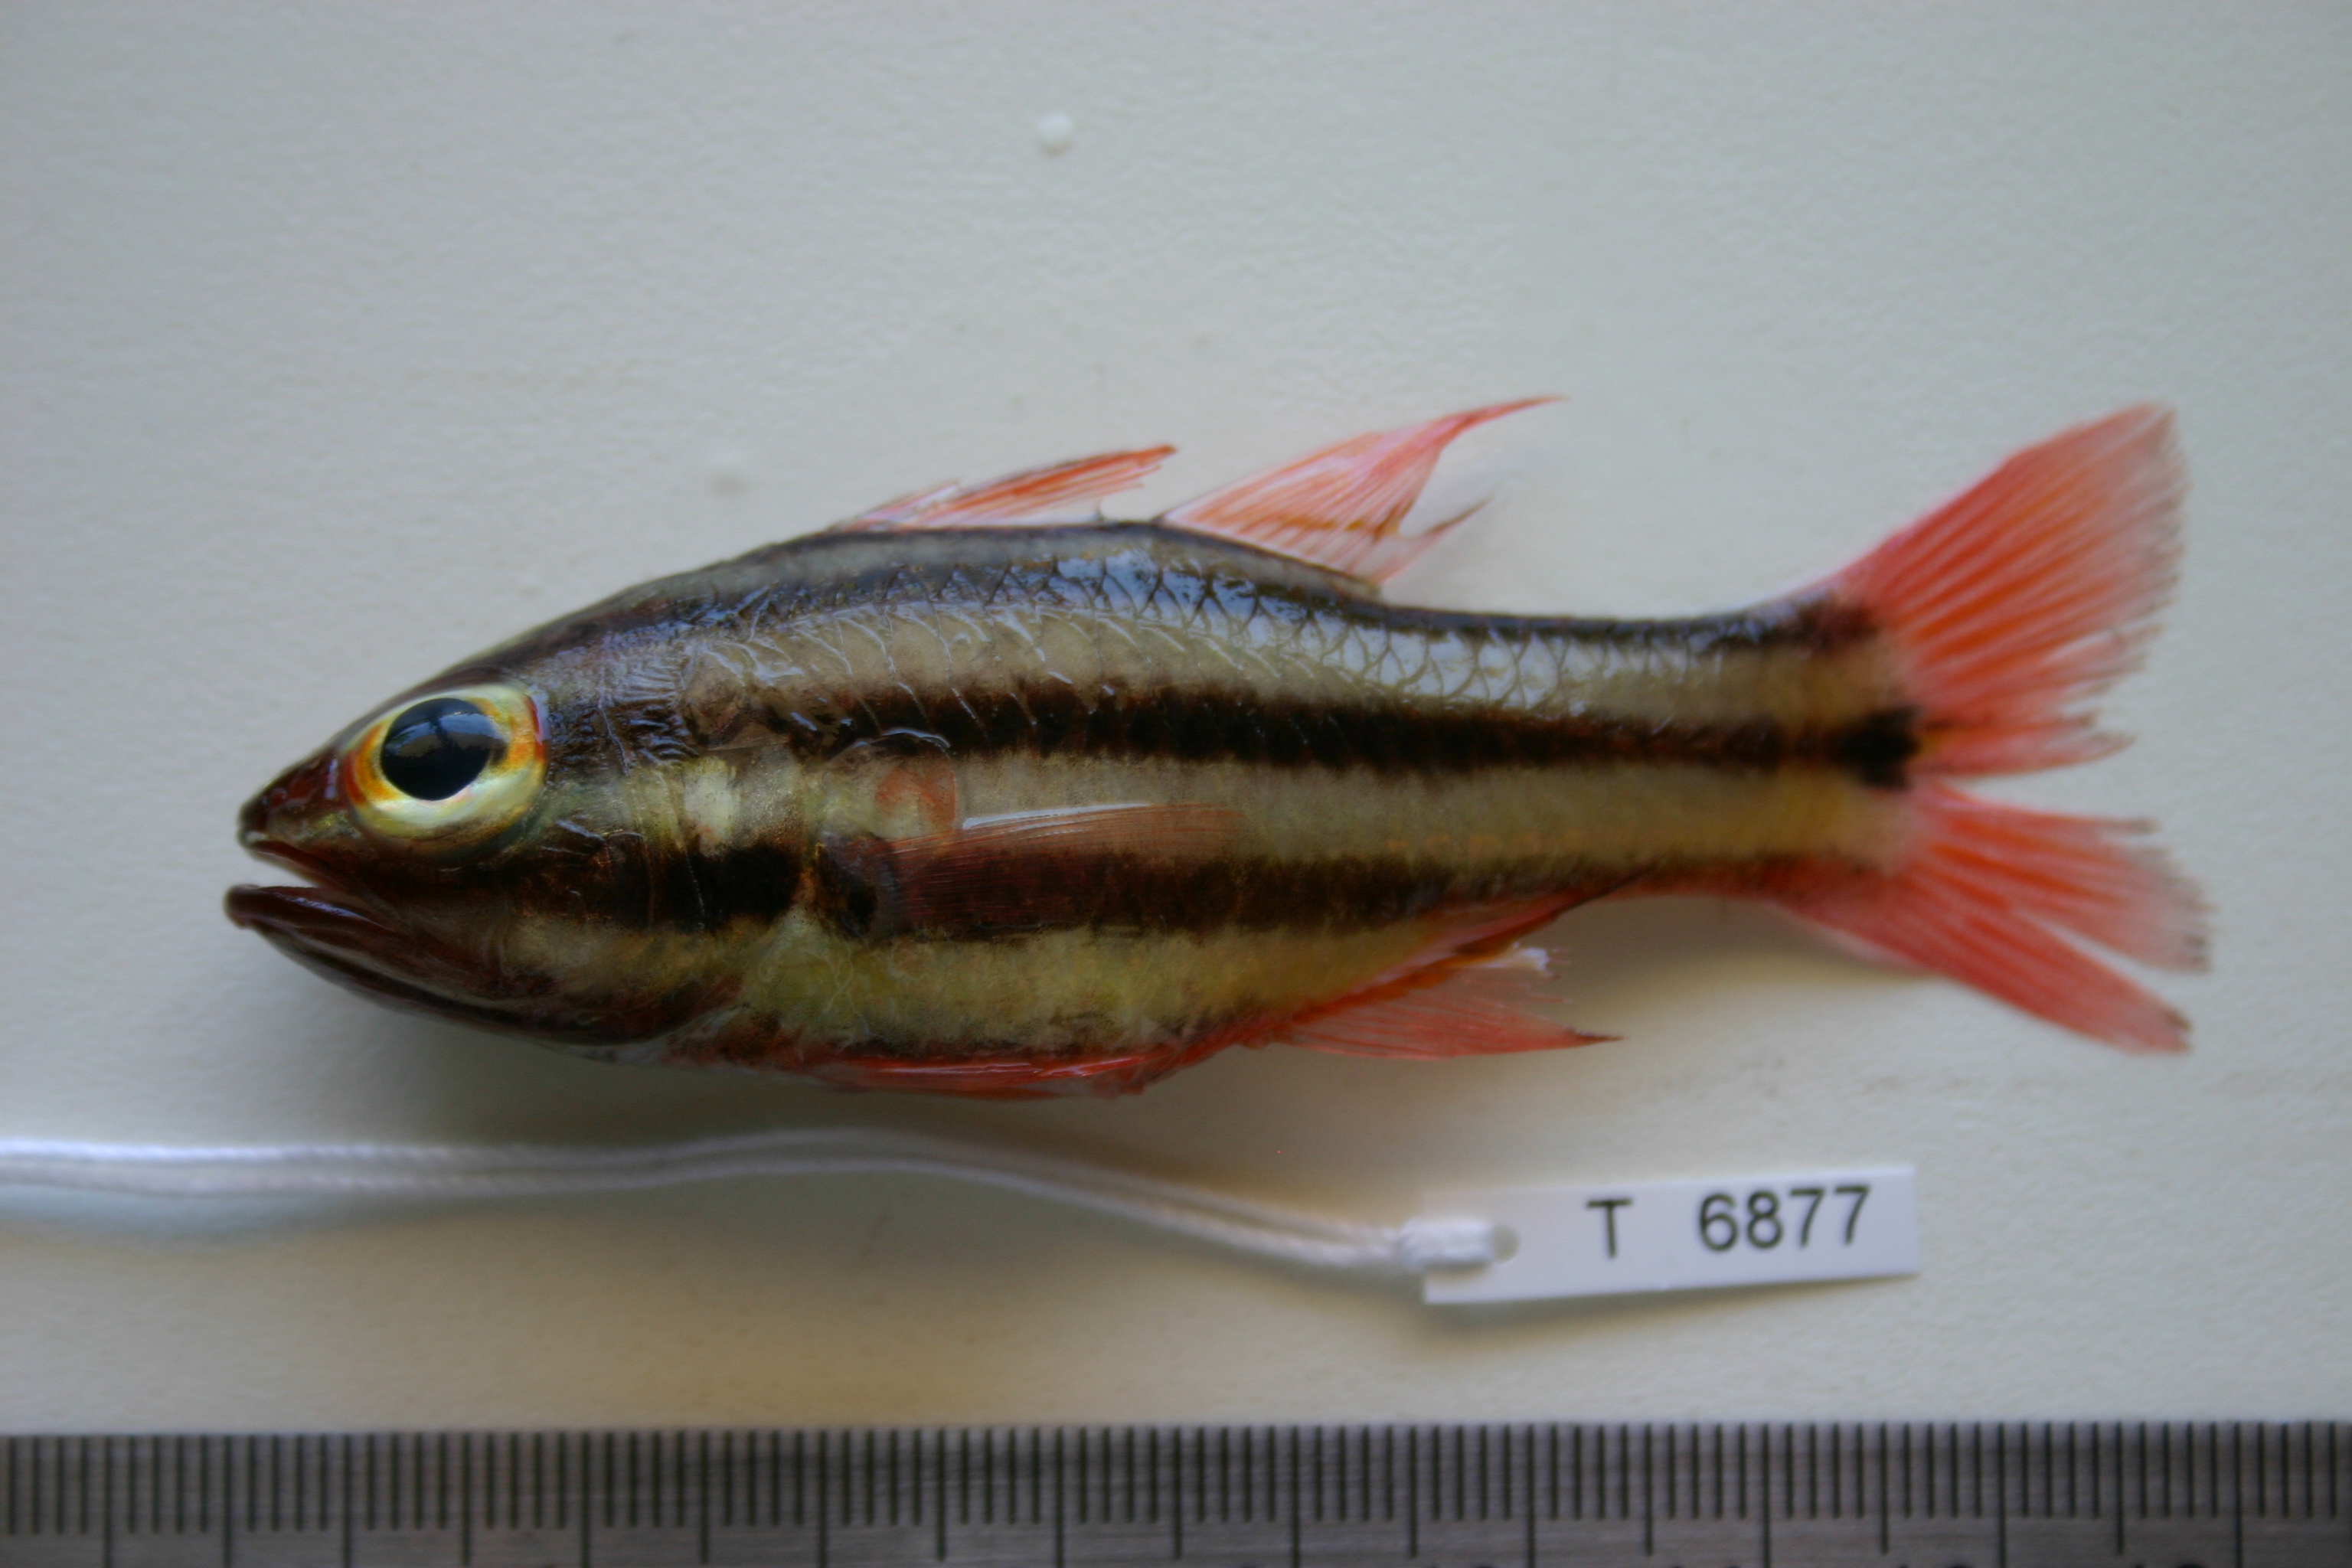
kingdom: Animalia
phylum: Chordata
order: Perciformes
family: Apogonidae
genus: Ostorhinchus
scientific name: Ostorhinchus angustatus
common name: Narrow-striped cardinalfish
